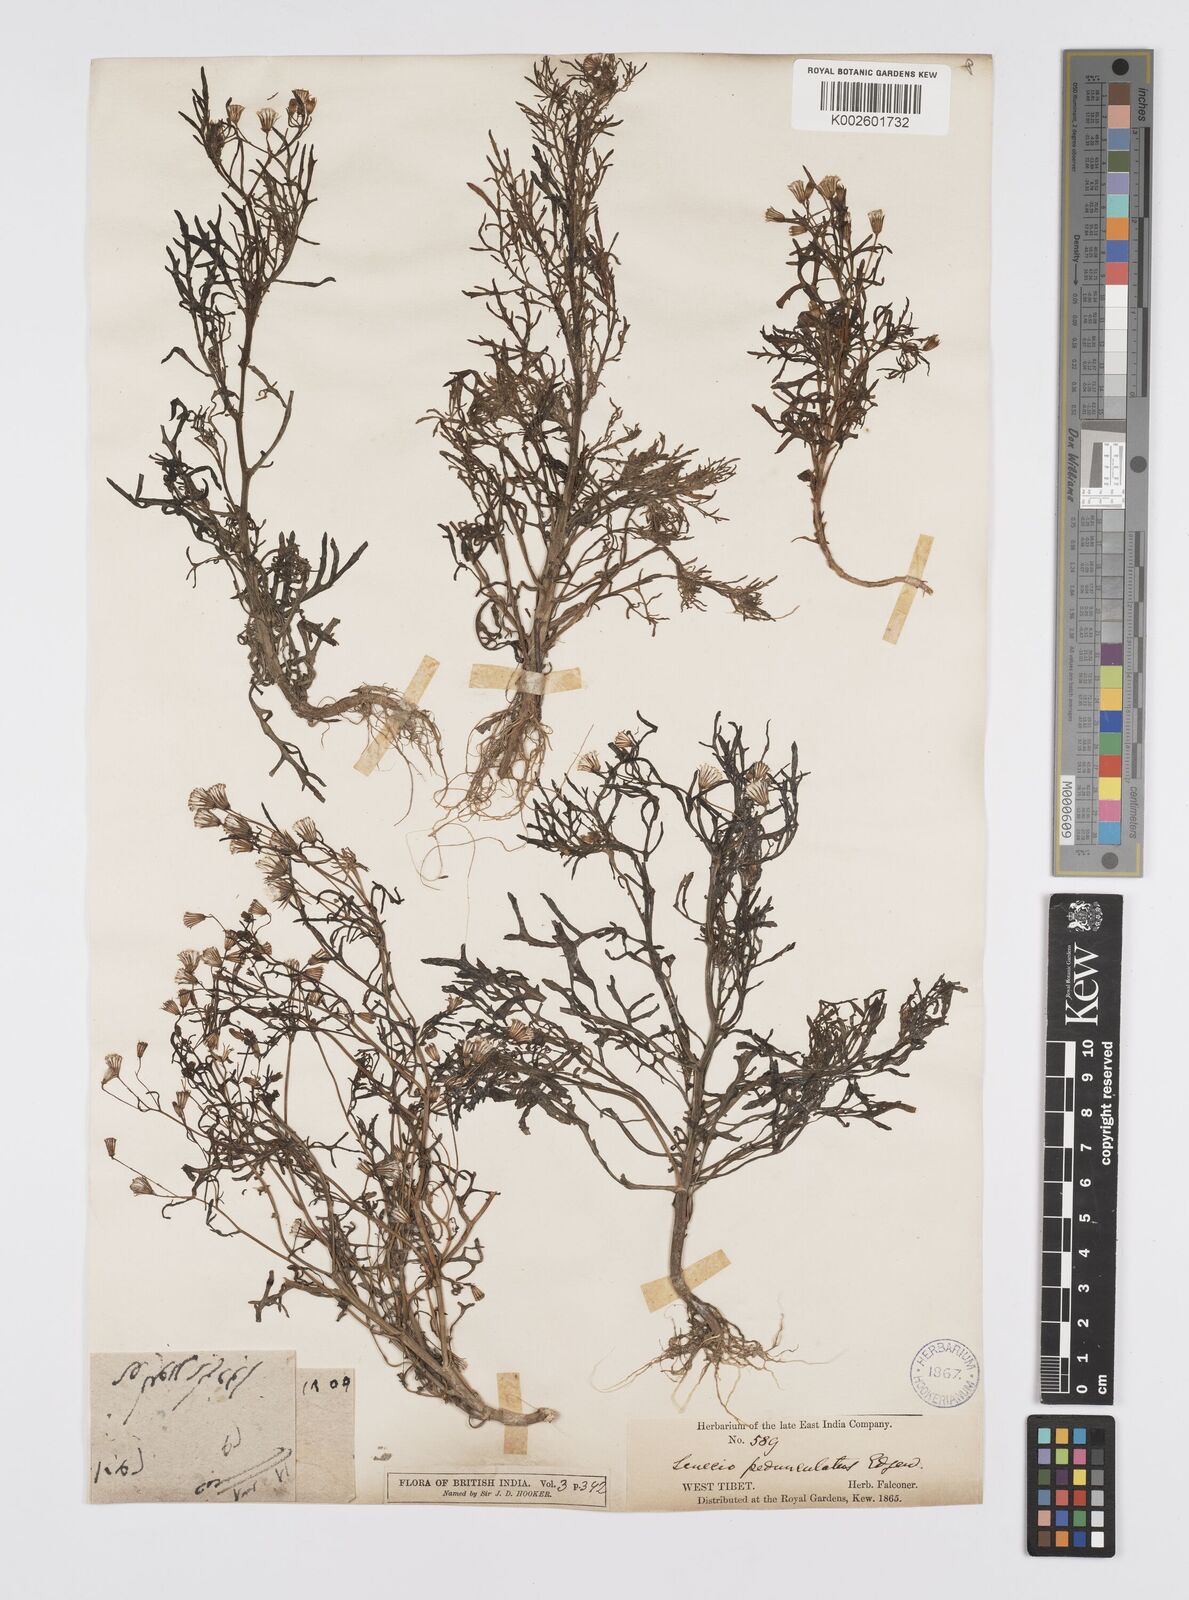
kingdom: Plantae
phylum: Tracheophyta
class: Magnoliopsida
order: Asterales
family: Asteraceae
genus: Senecio
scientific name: Senecio krascheninnikovii
